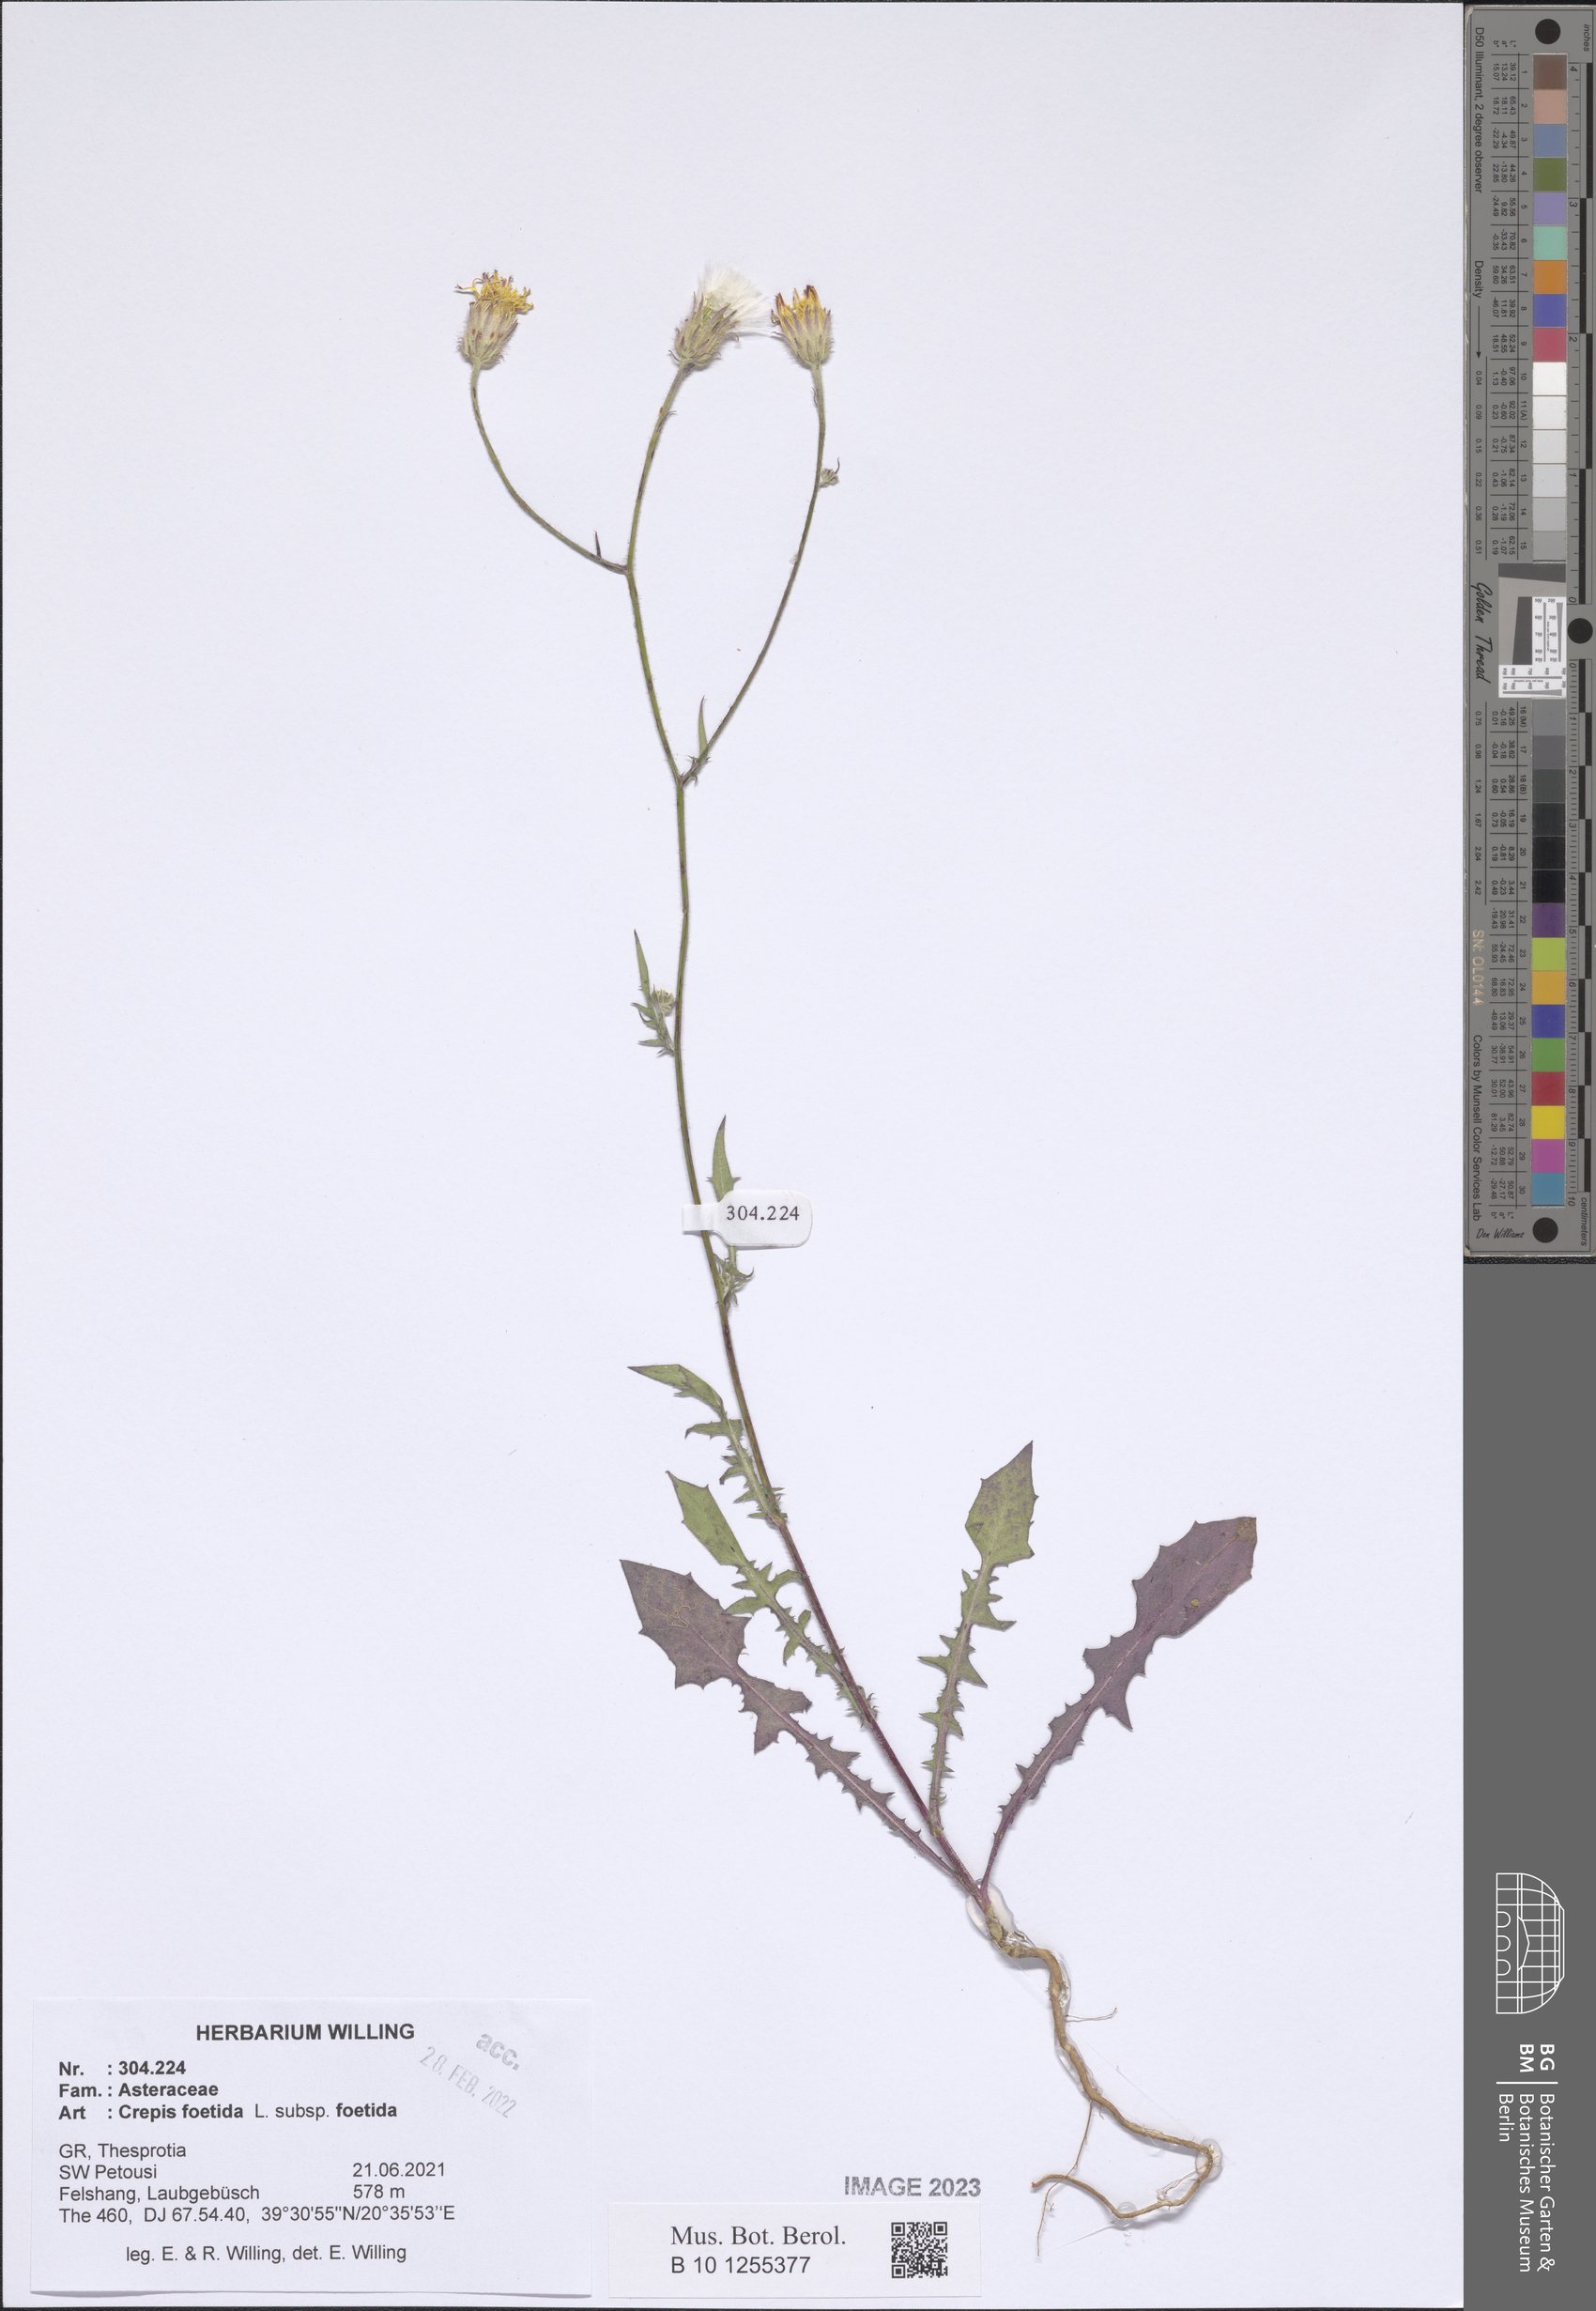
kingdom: Plantae
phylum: Tracheophyta
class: Magnoliopsida
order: Asterales
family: Asteraceae
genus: Crepis
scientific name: Crepis foetida
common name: Stinking hawk's-beard
